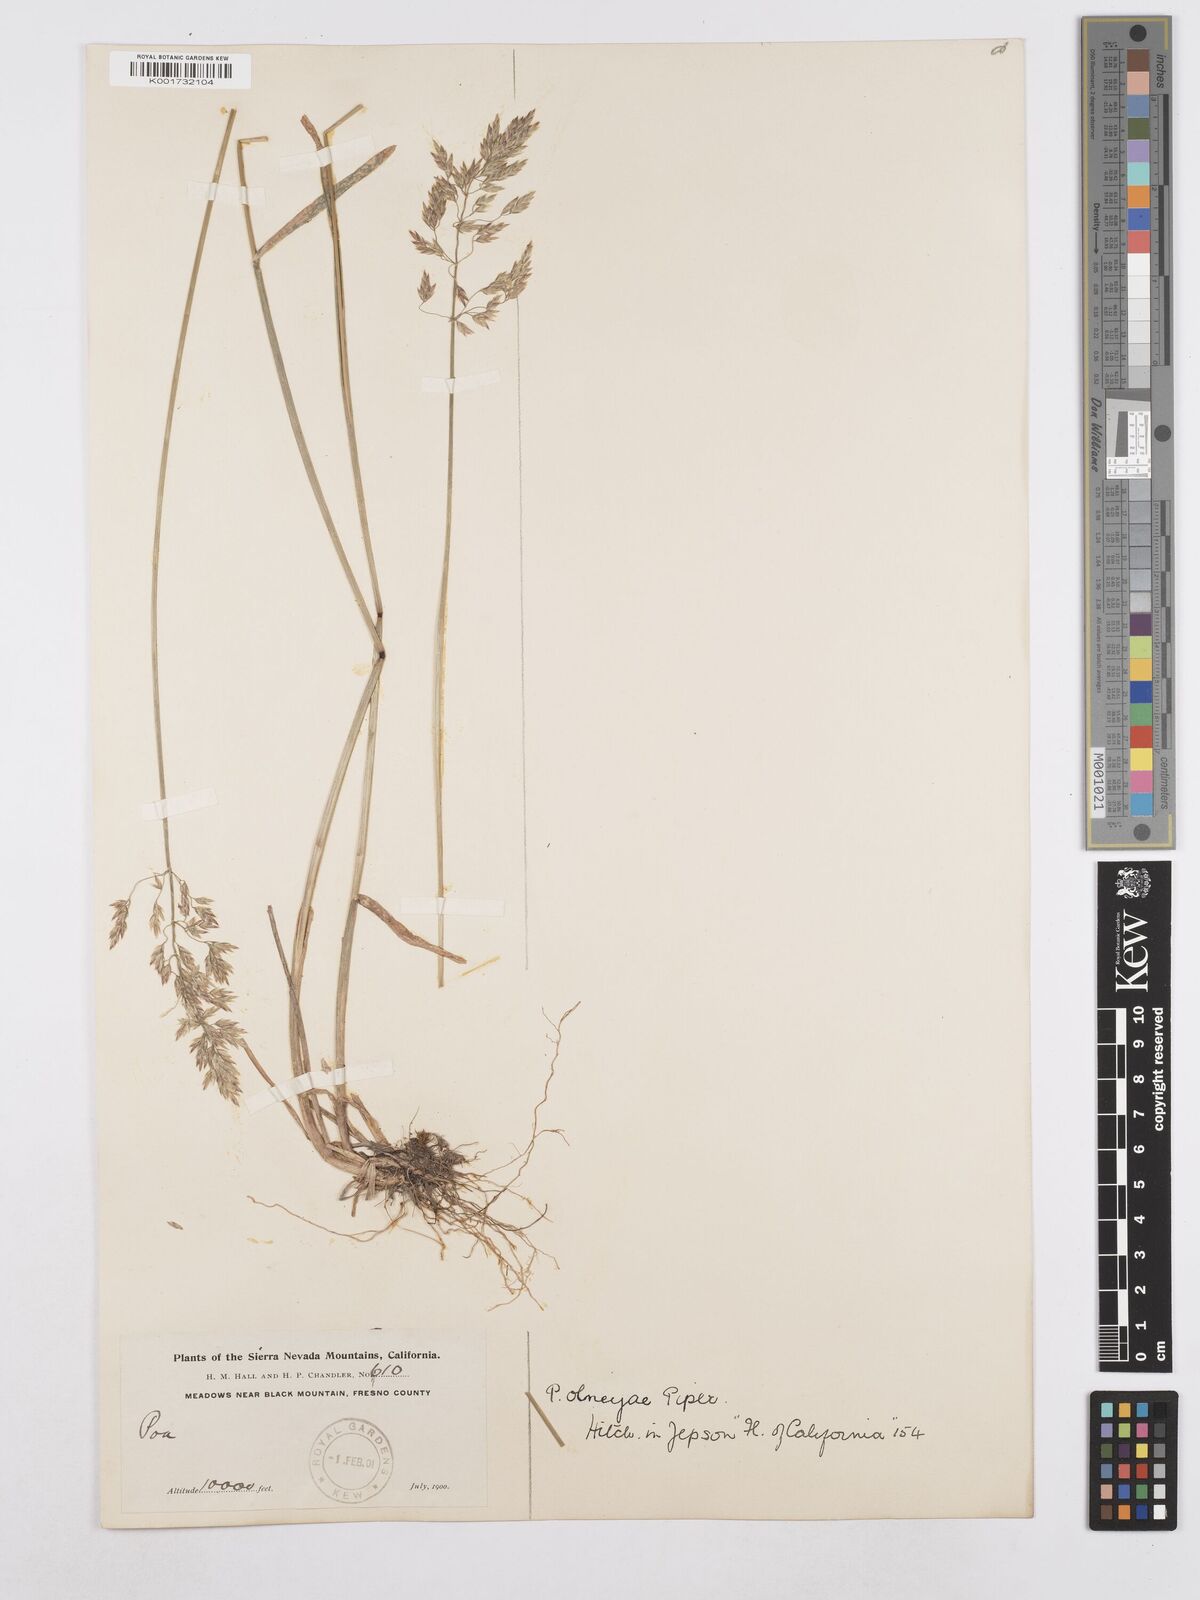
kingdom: Plantae
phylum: Tracheophyta
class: Liliopsida
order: Poales
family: Poaceae
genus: Poa
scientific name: Poa wheeleri
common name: Wheeler's bluegrass
